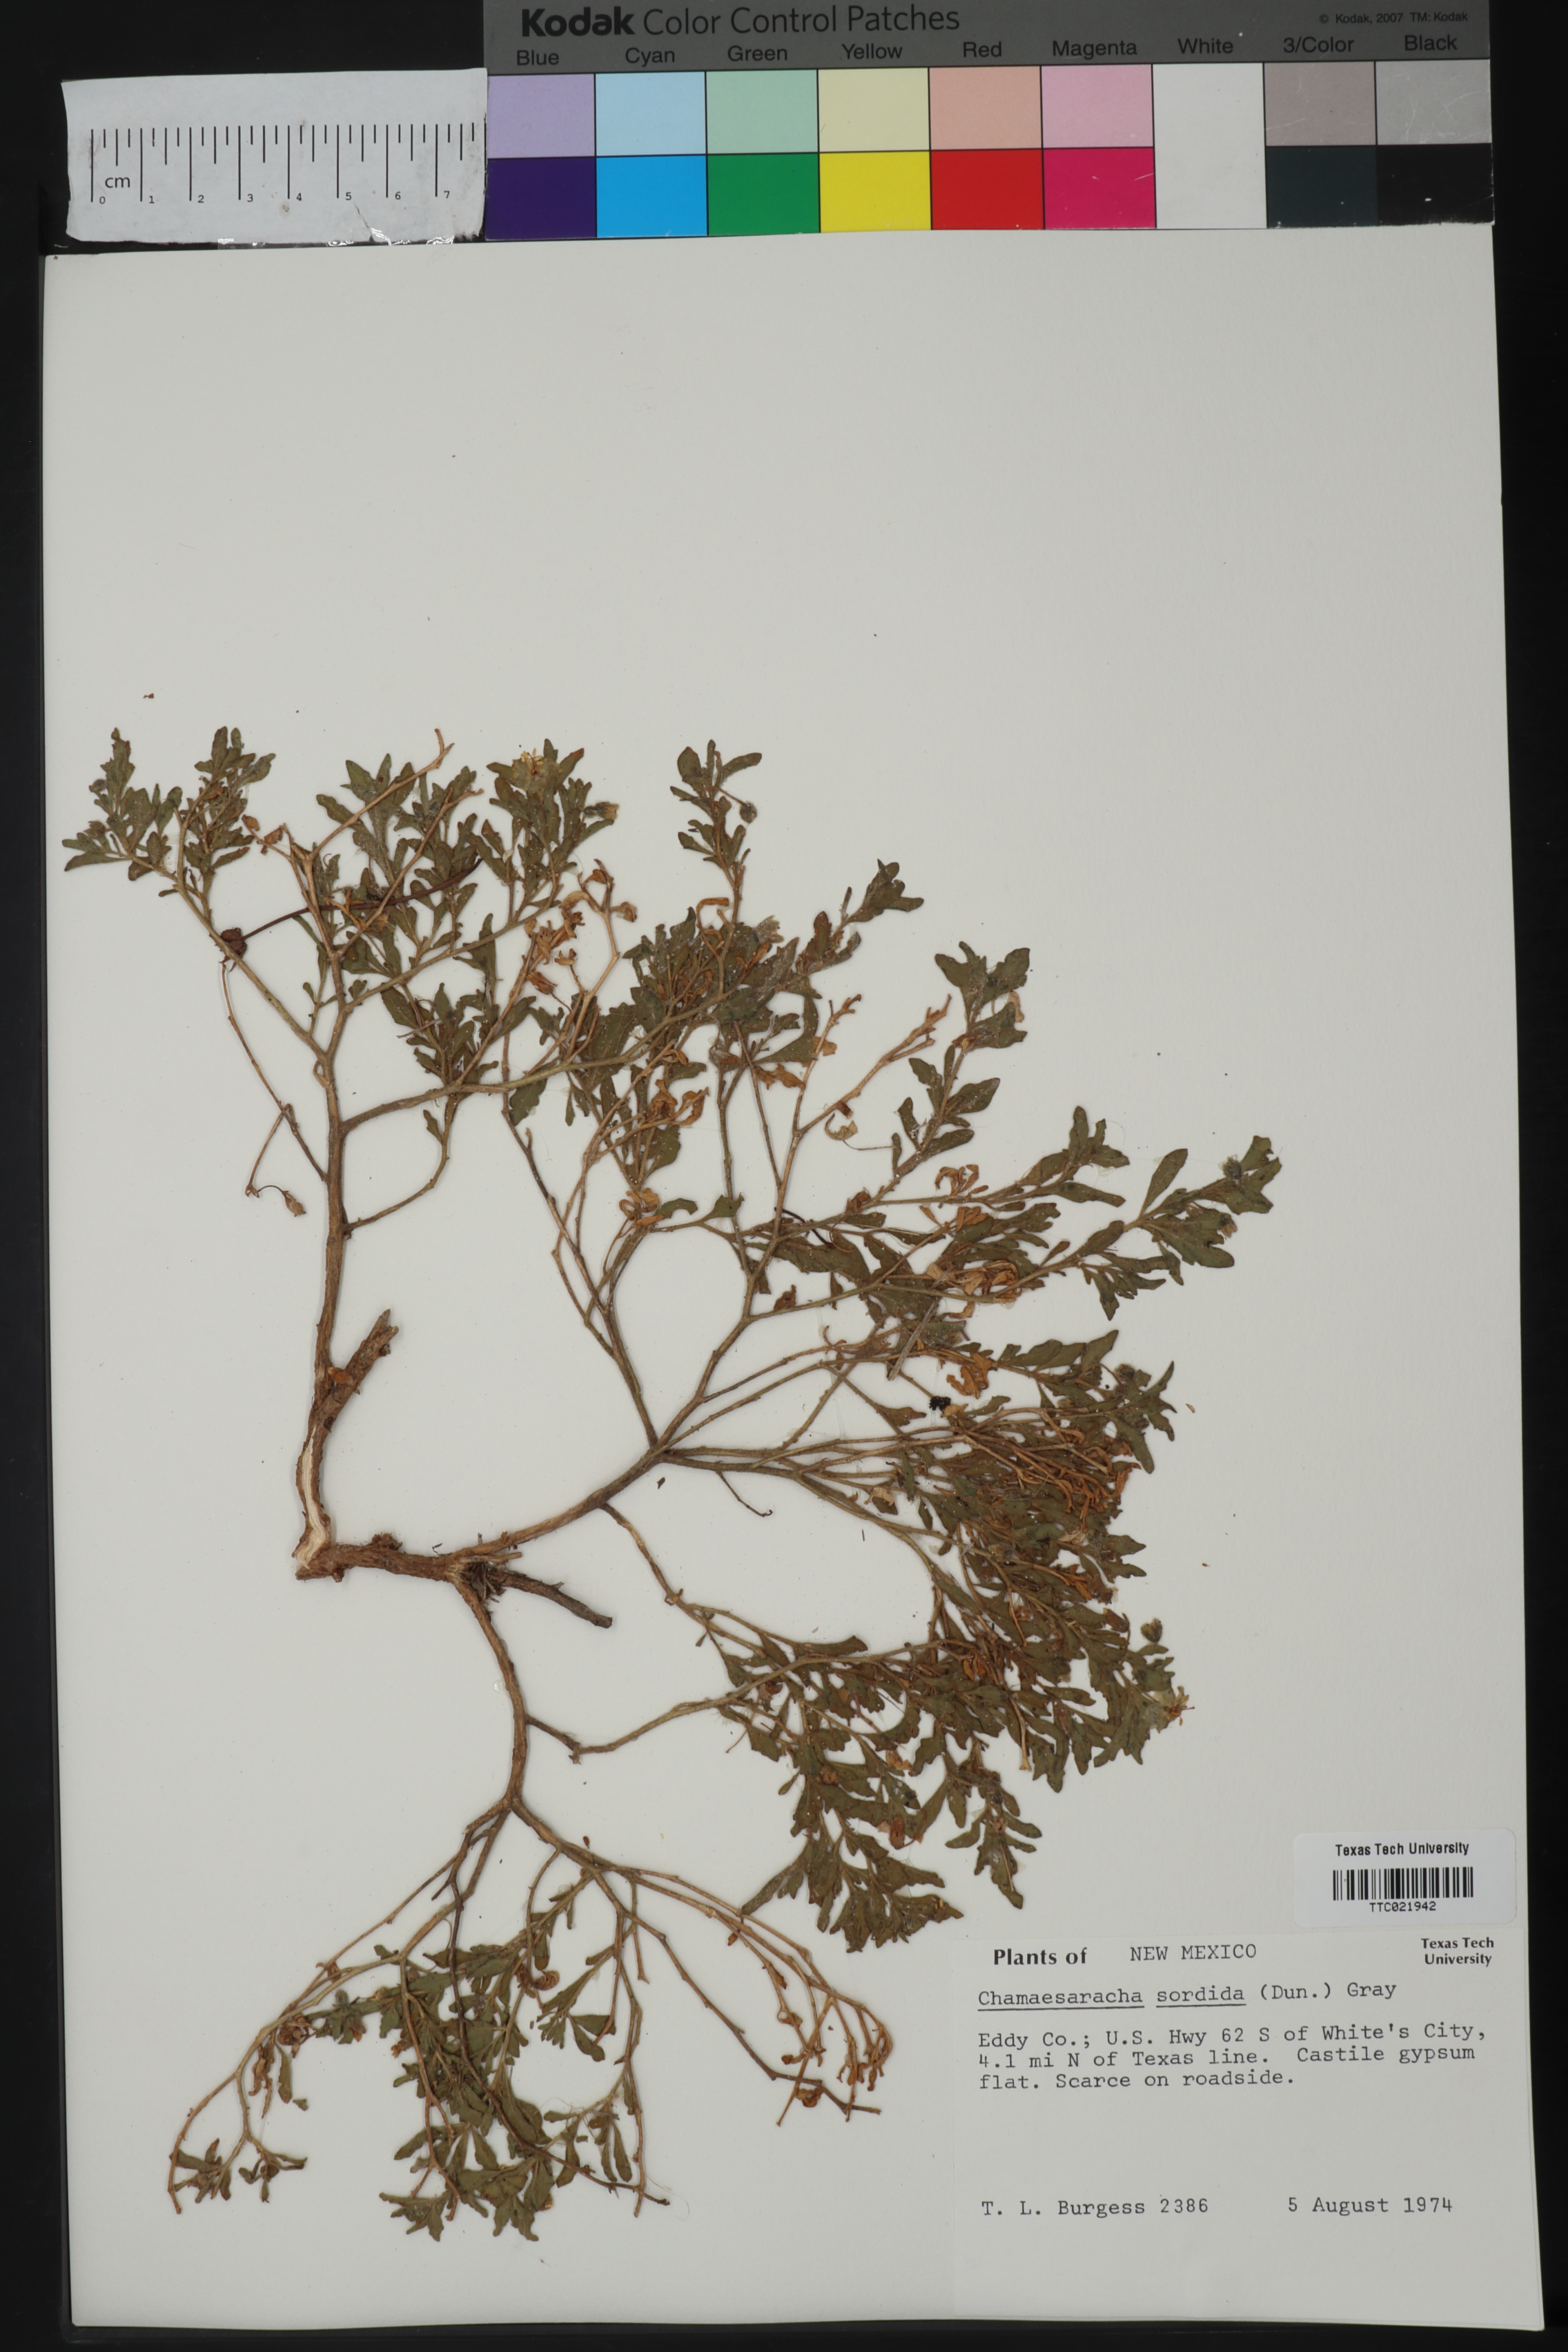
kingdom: Plantae
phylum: Tracheophyta
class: Magnoliopsida
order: Solanales
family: Solanaceae
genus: Chamaesaracha
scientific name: Chamaesaracha sordida
